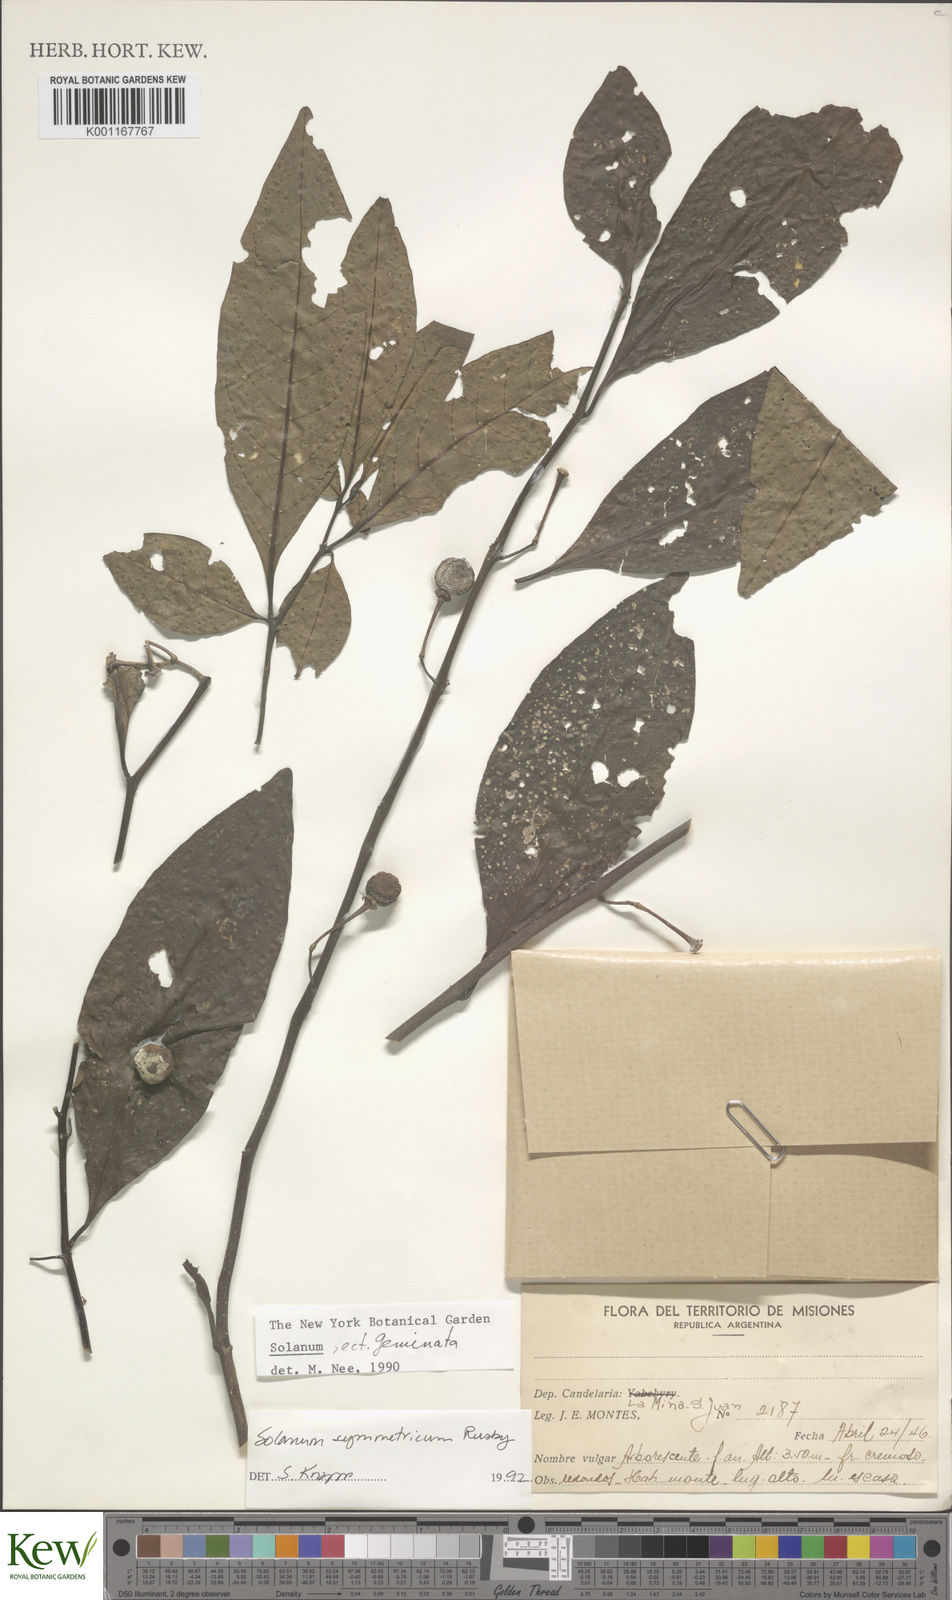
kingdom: Plantae
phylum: Tracheophyta
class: Magnoliopsida
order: Solanales
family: Solanaceae
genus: Solanum
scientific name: Solanum symmetricum
